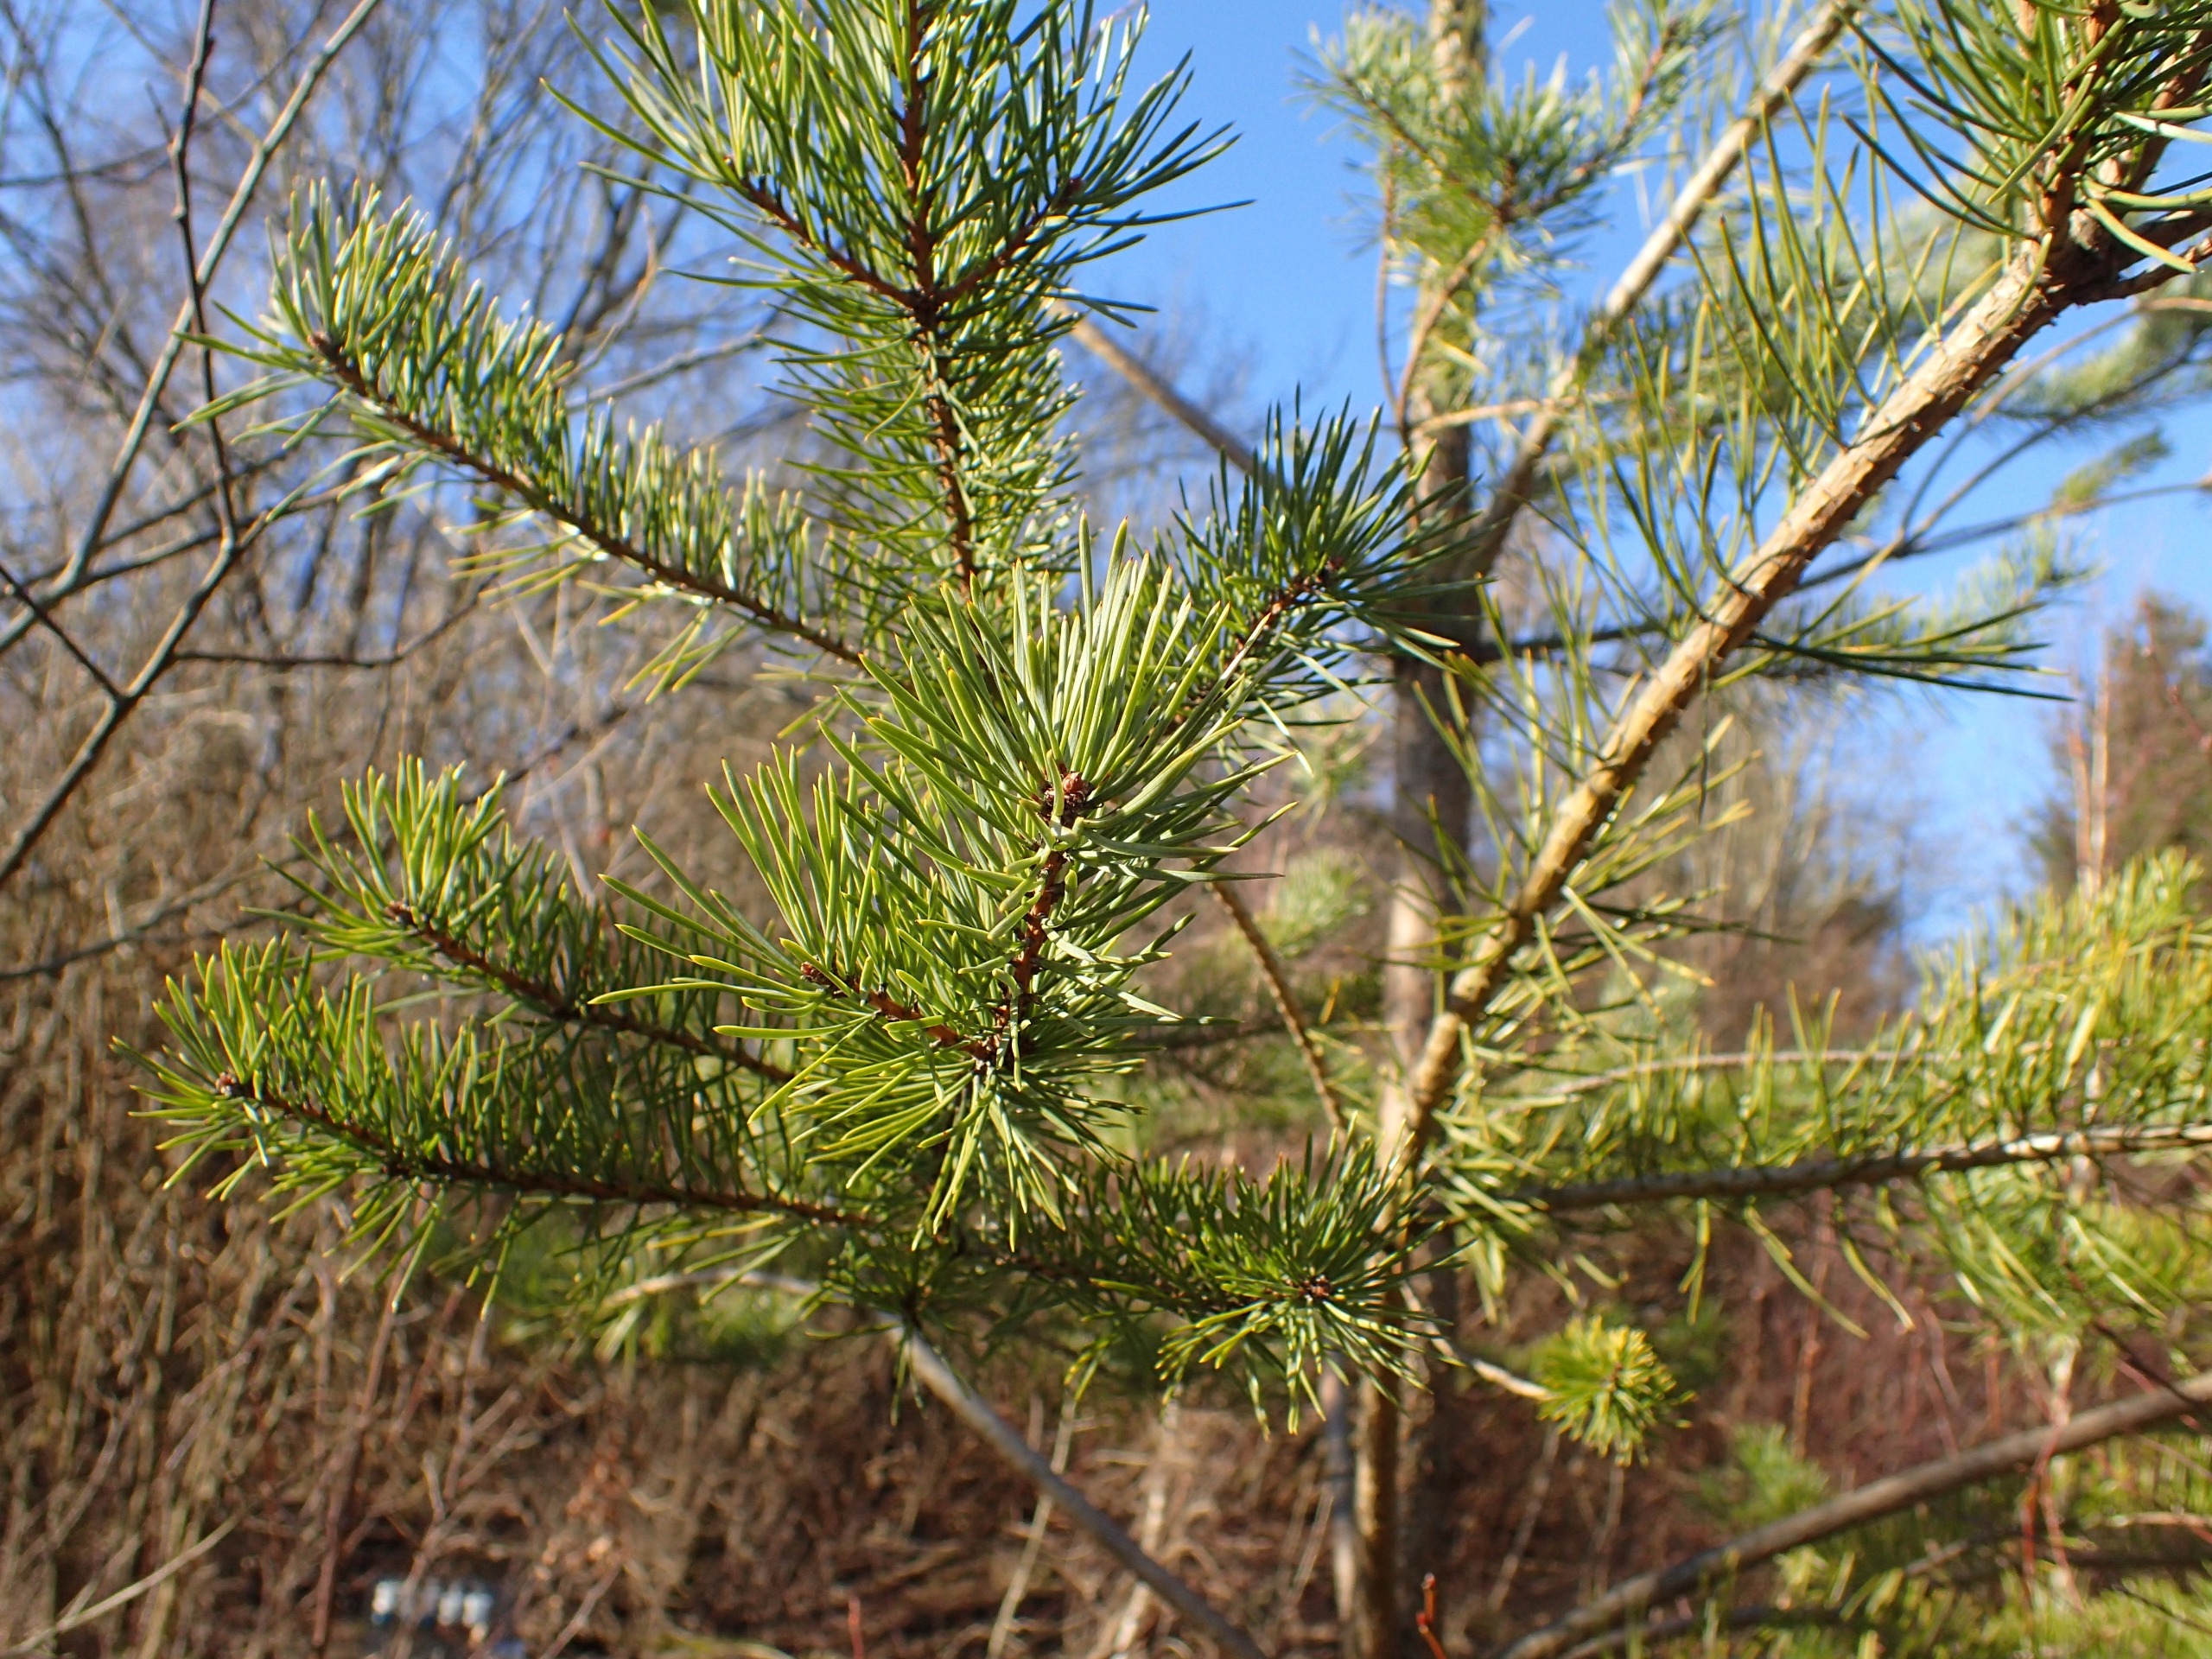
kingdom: Plantae
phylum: Tracheophyta
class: Pinopsida
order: Pinales
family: Pinaceae
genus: Pinus
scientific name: Pinus sylvestris
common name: Skov-fyr
